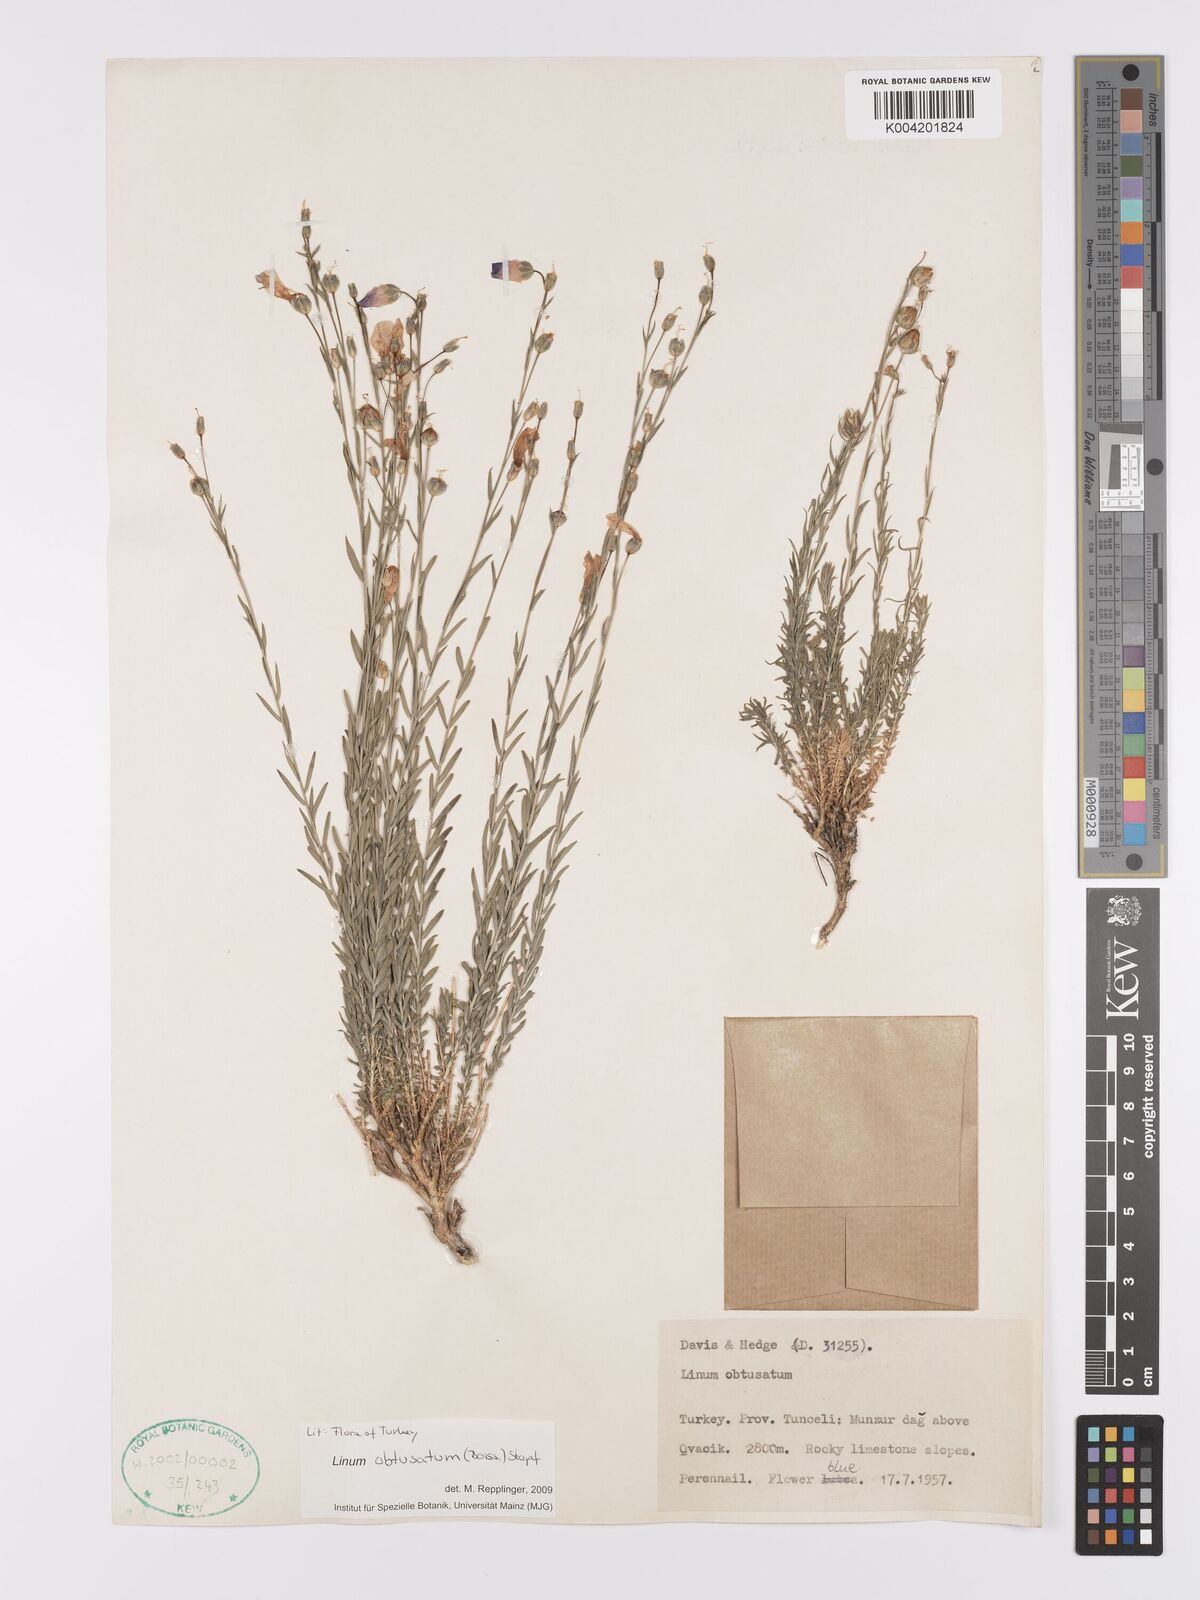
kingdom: Plantae
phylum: Tracheophyta
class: Magnoliopsida
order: Malpighiales
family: Linaceae
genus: Linum
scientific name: Linum obtusatum
